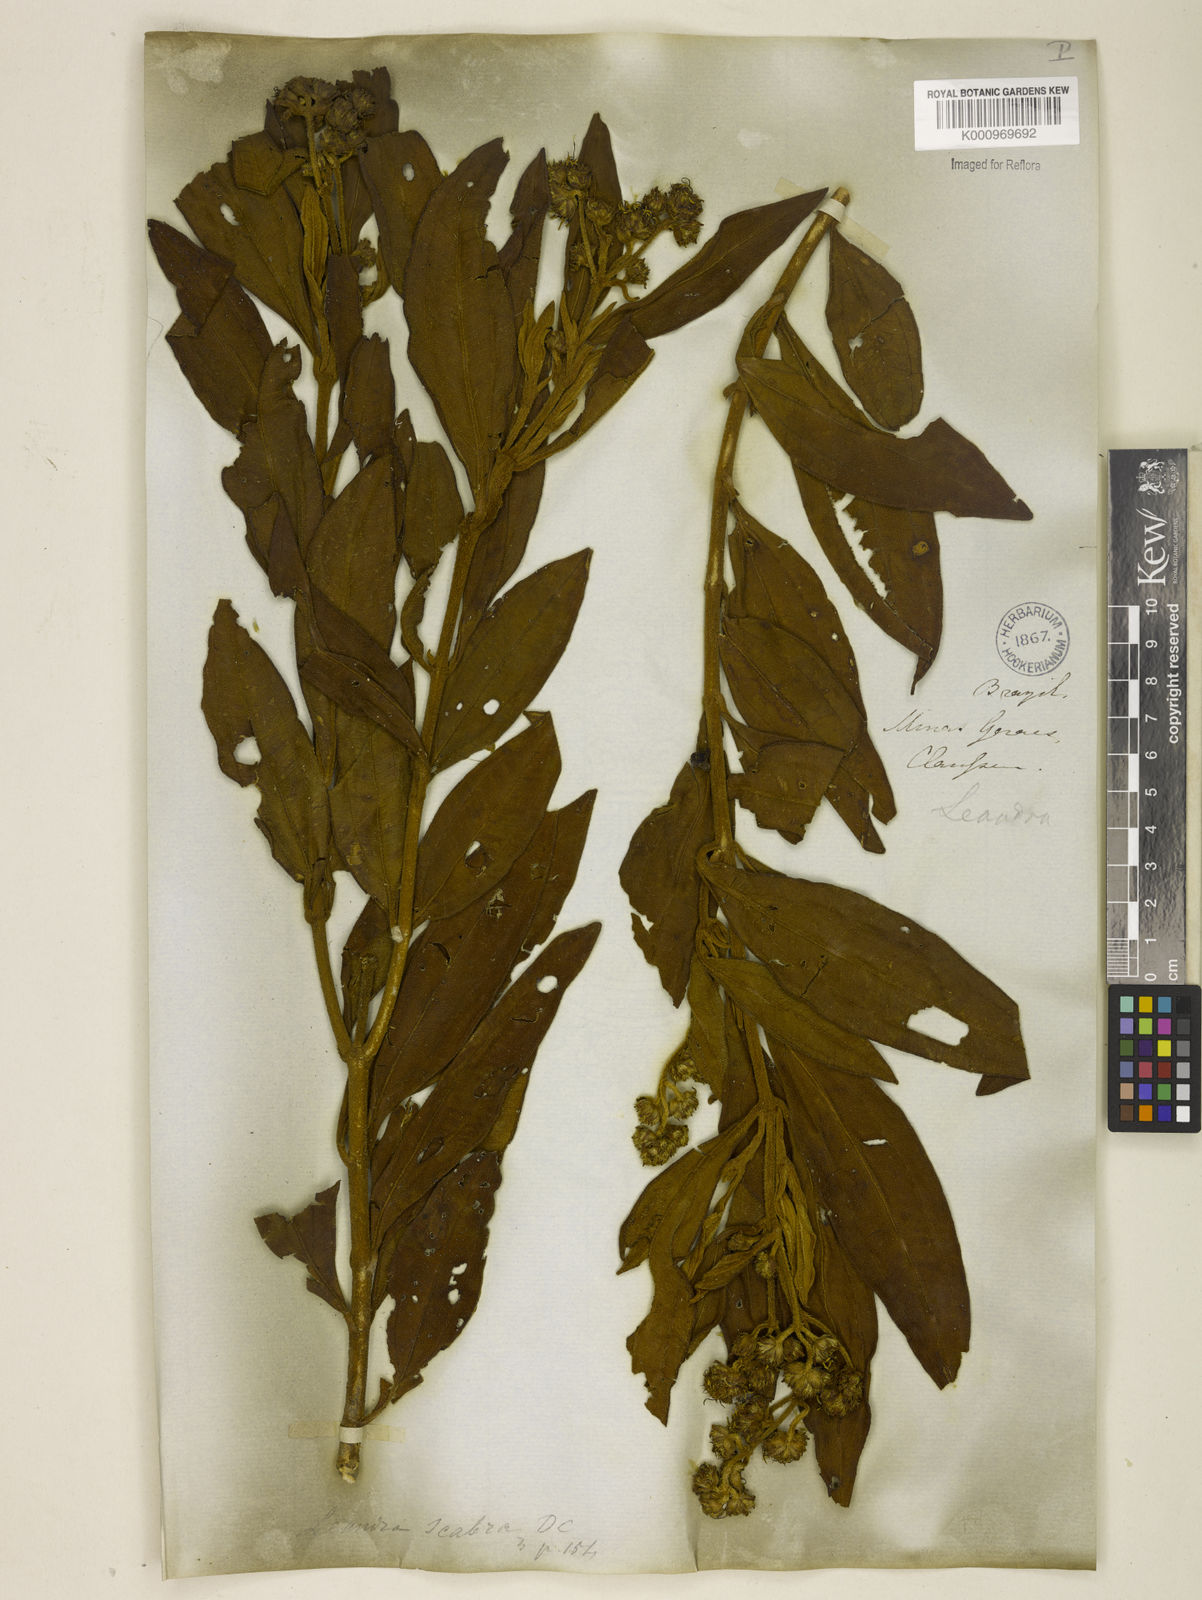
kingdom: Plantae
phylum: Tracheophyta
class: Magnoliopsida
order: Myrtales
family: Melastomataceae
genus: Miconia
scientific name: Miconia melastomoides
